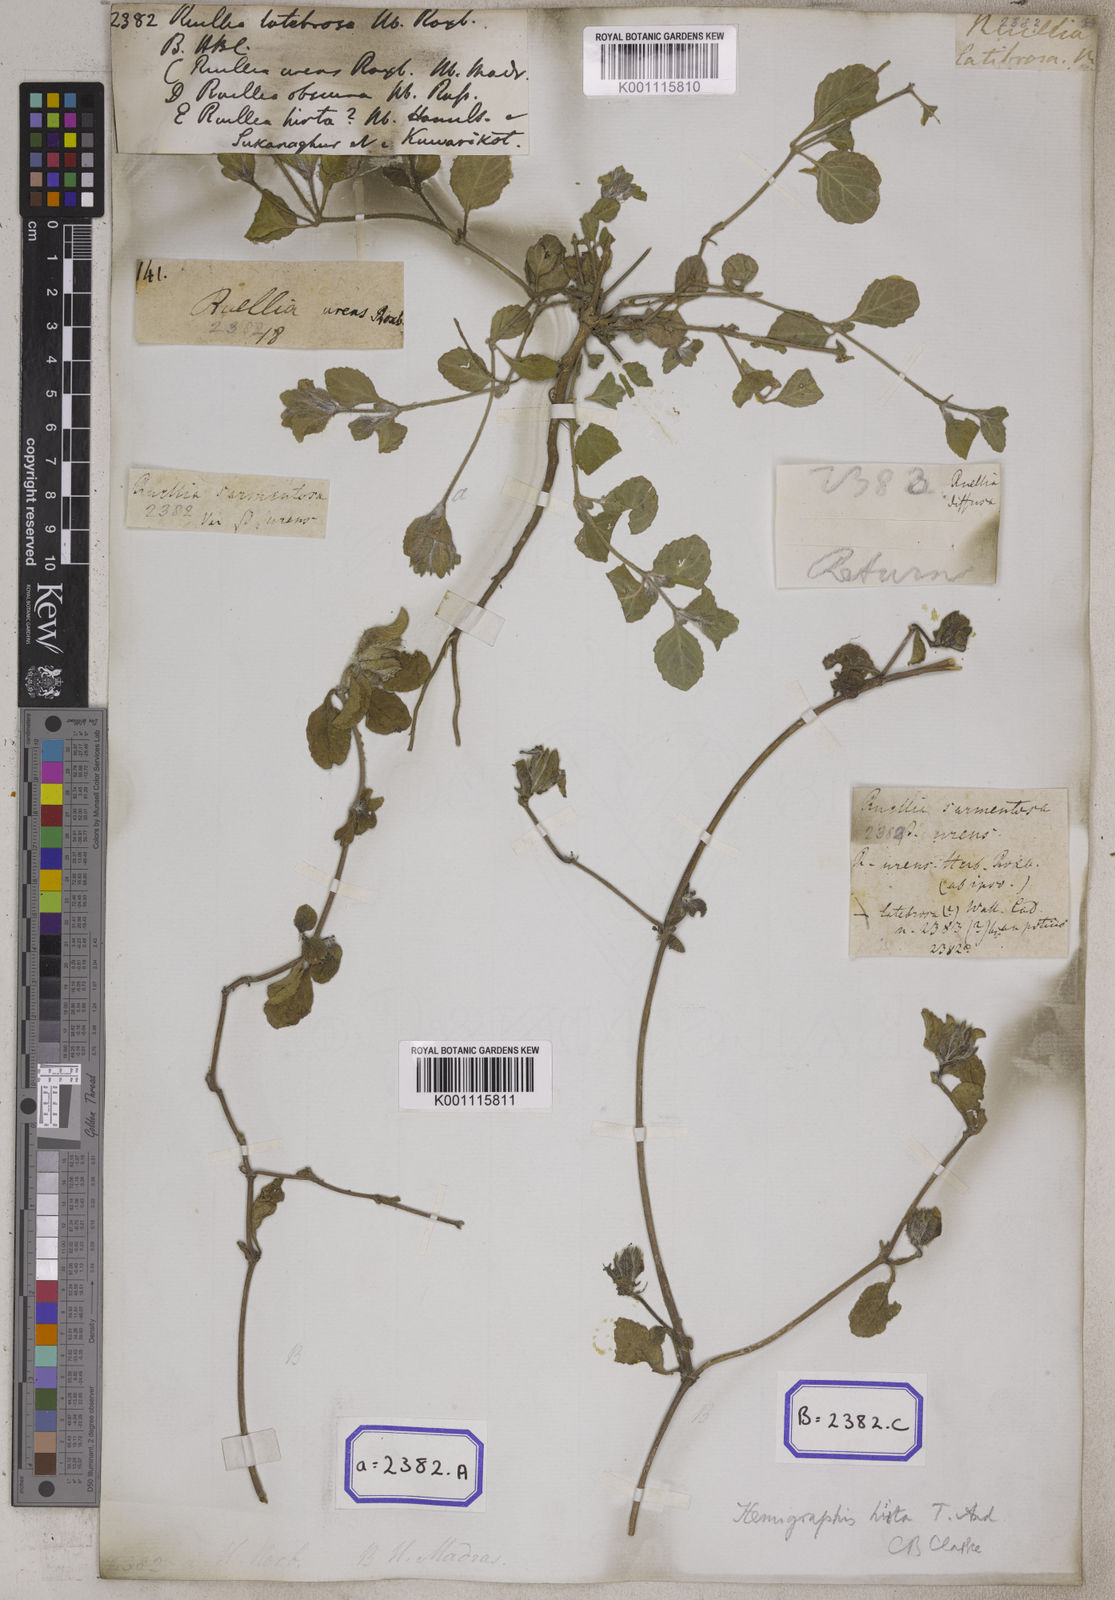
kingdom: Plantae
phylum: Tracheophyta
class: Magnoliopsida
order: Lamiales
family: Acanthaceae
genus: Strobilanthes
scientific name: Strobilanthes hirta
